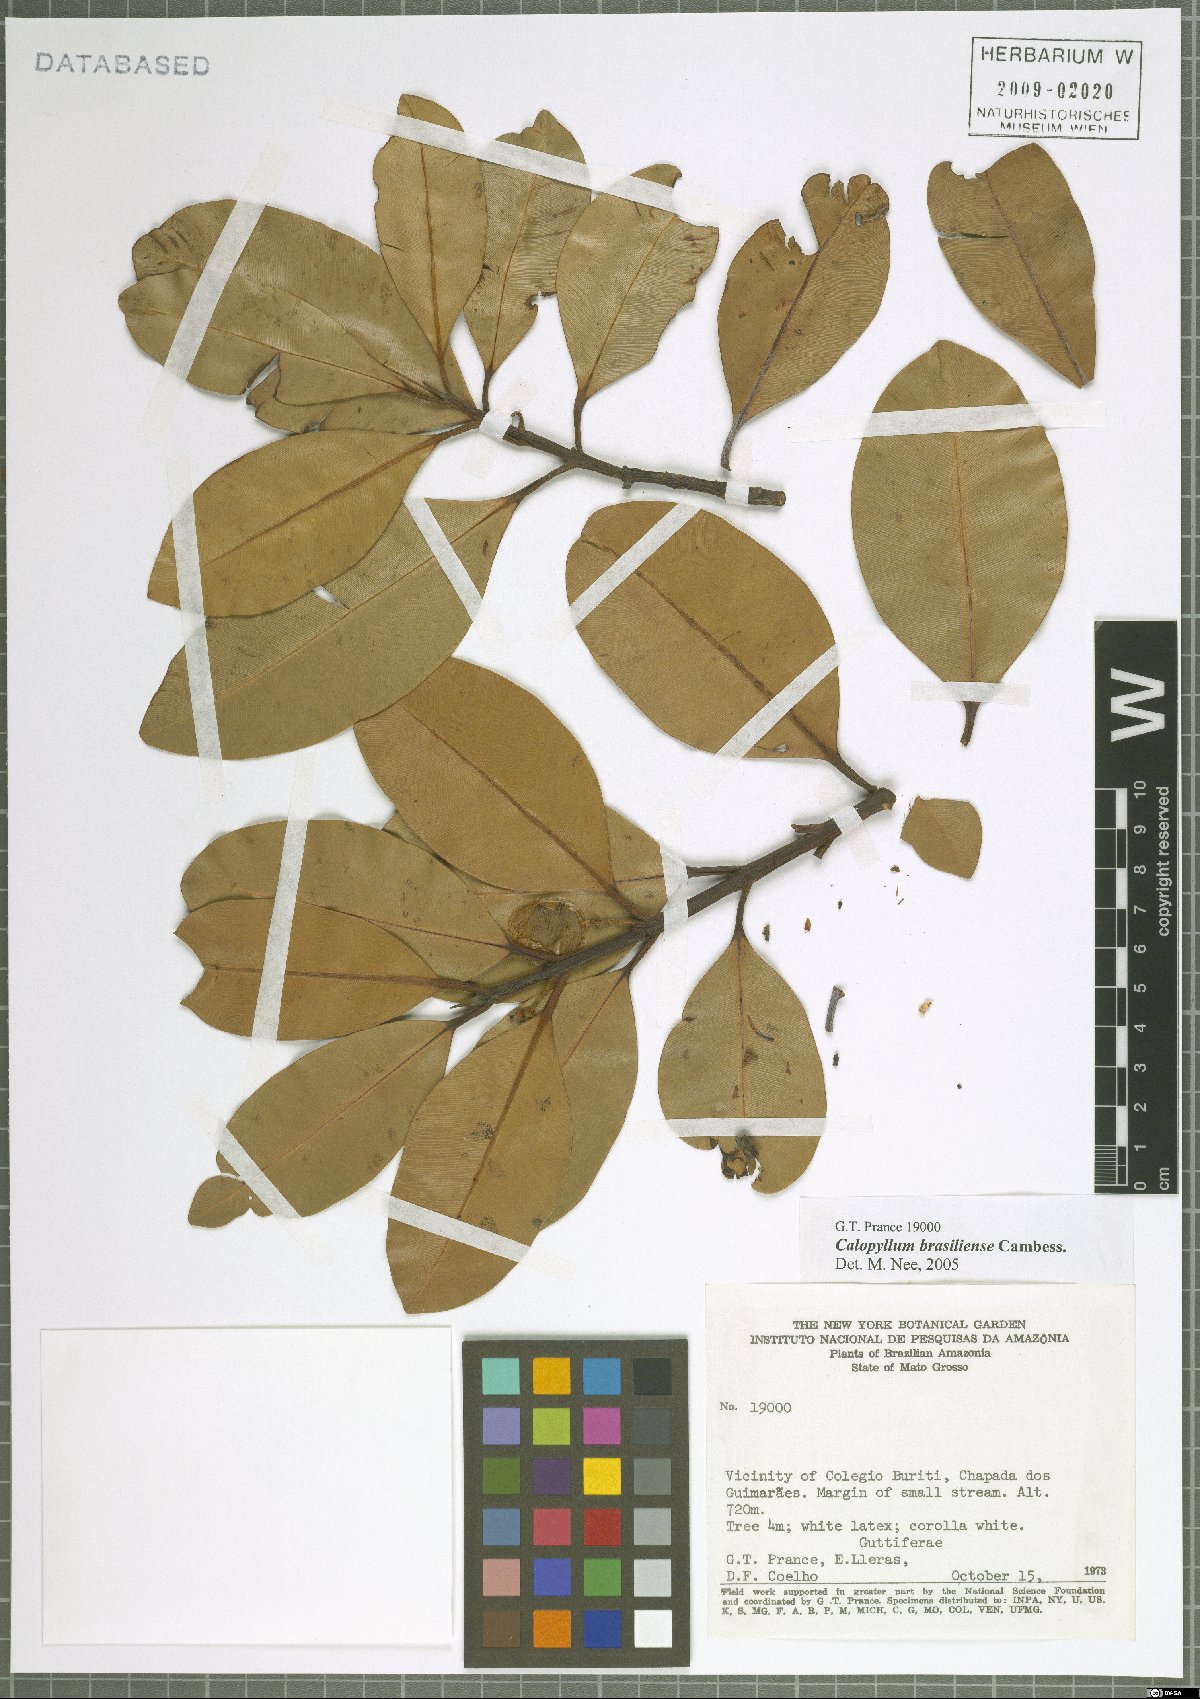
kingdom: Plantae
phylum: Tracheophyta
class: Magnoliopsida
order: Malpighiales
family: Calophyllaceae
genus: Calophyllum
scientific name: Calophyllum brasiliense
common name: Santa maria
